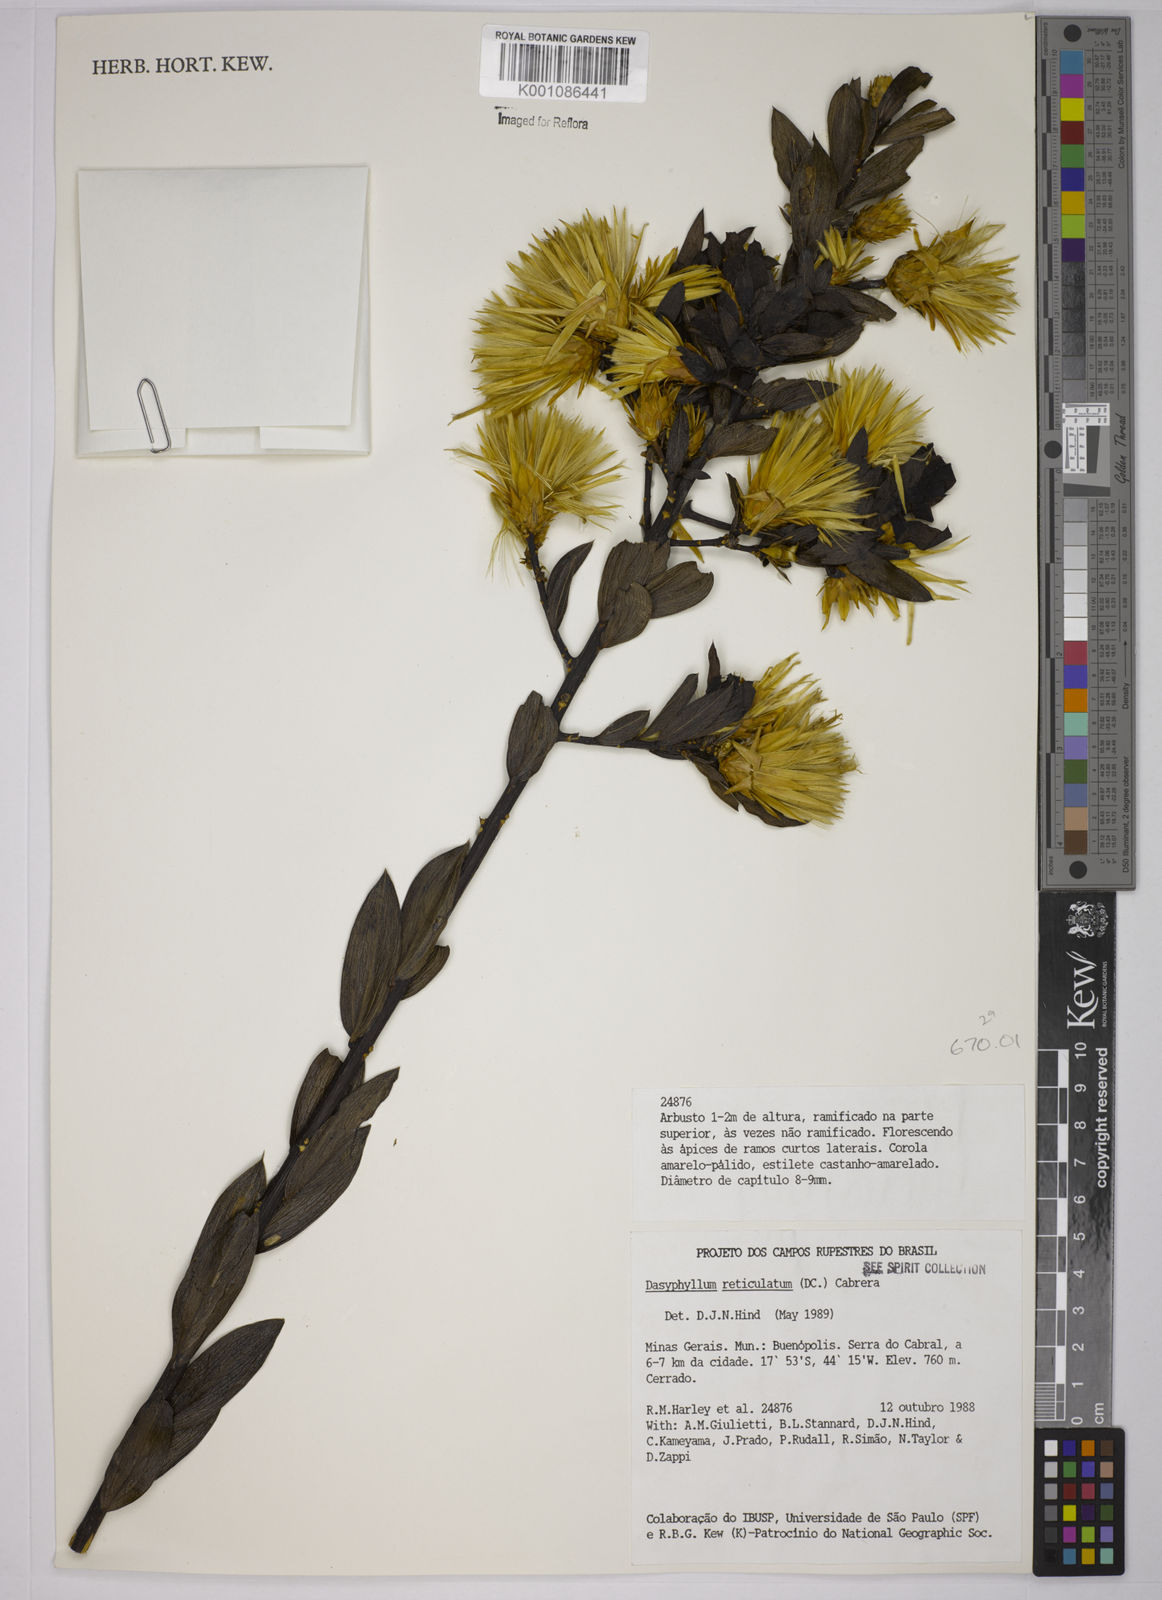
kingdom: Plantae
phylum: Tracheophyta
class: Magnoliopsida
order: Asterales
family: Asteraceae
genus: Dasyphyllum
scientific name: Dasyphyllum reticulatum
